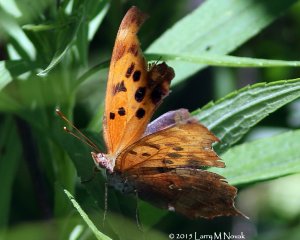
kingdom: Animalia
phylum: Arthropoda
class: Insecta
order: Lepidoptera
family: Nymphalidae
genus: Polygonia
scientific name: Polygonia interrogationis
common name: Question Mark
